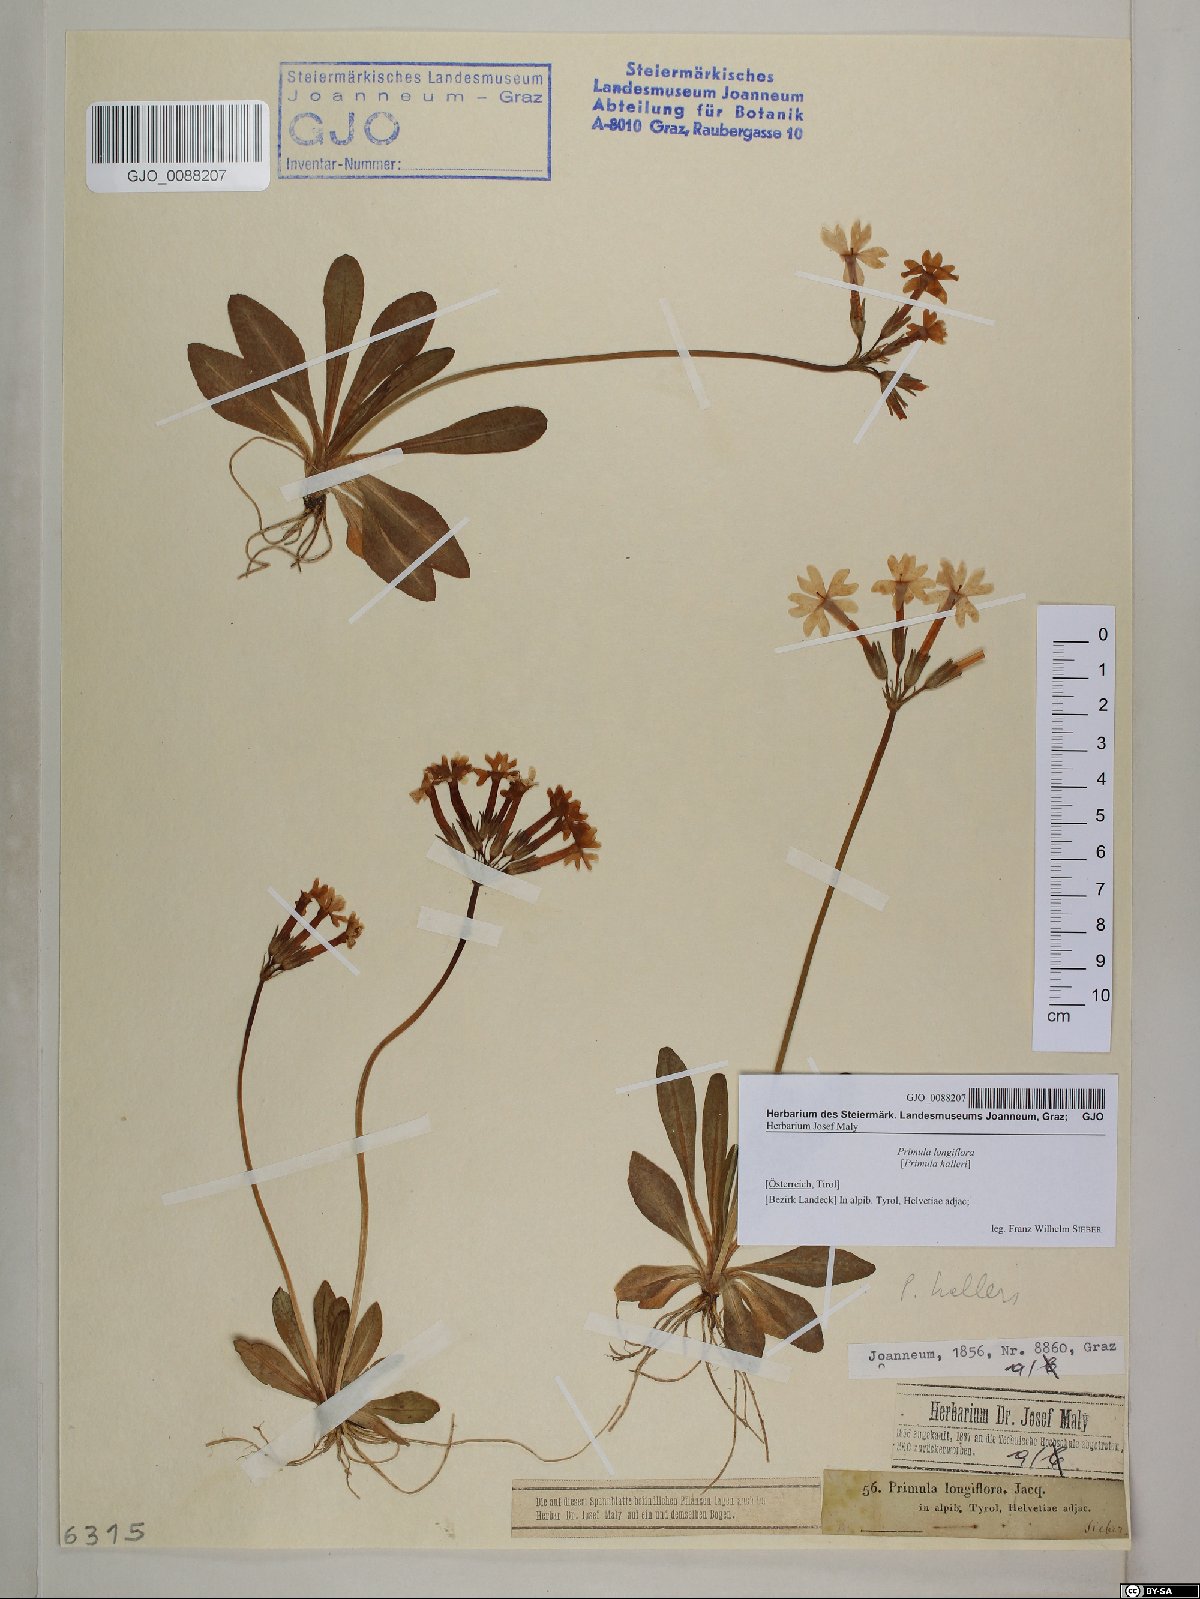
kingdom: Plantae
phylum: Tracheophyta
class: Magnoliopsida
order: Ericales
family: Primulaceae
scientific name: Primulaceae
